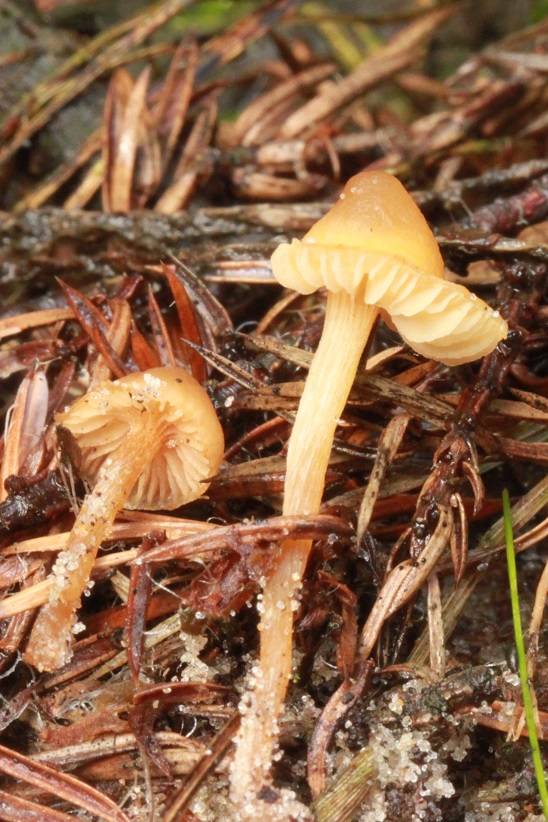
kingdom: Fungi
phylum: Basidiomycota
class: Agaricomycetes
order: Agaricales
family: Hymenogastraceae
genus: Galerina
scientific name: Galerina marginata
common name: randbæltet hjelmhat
